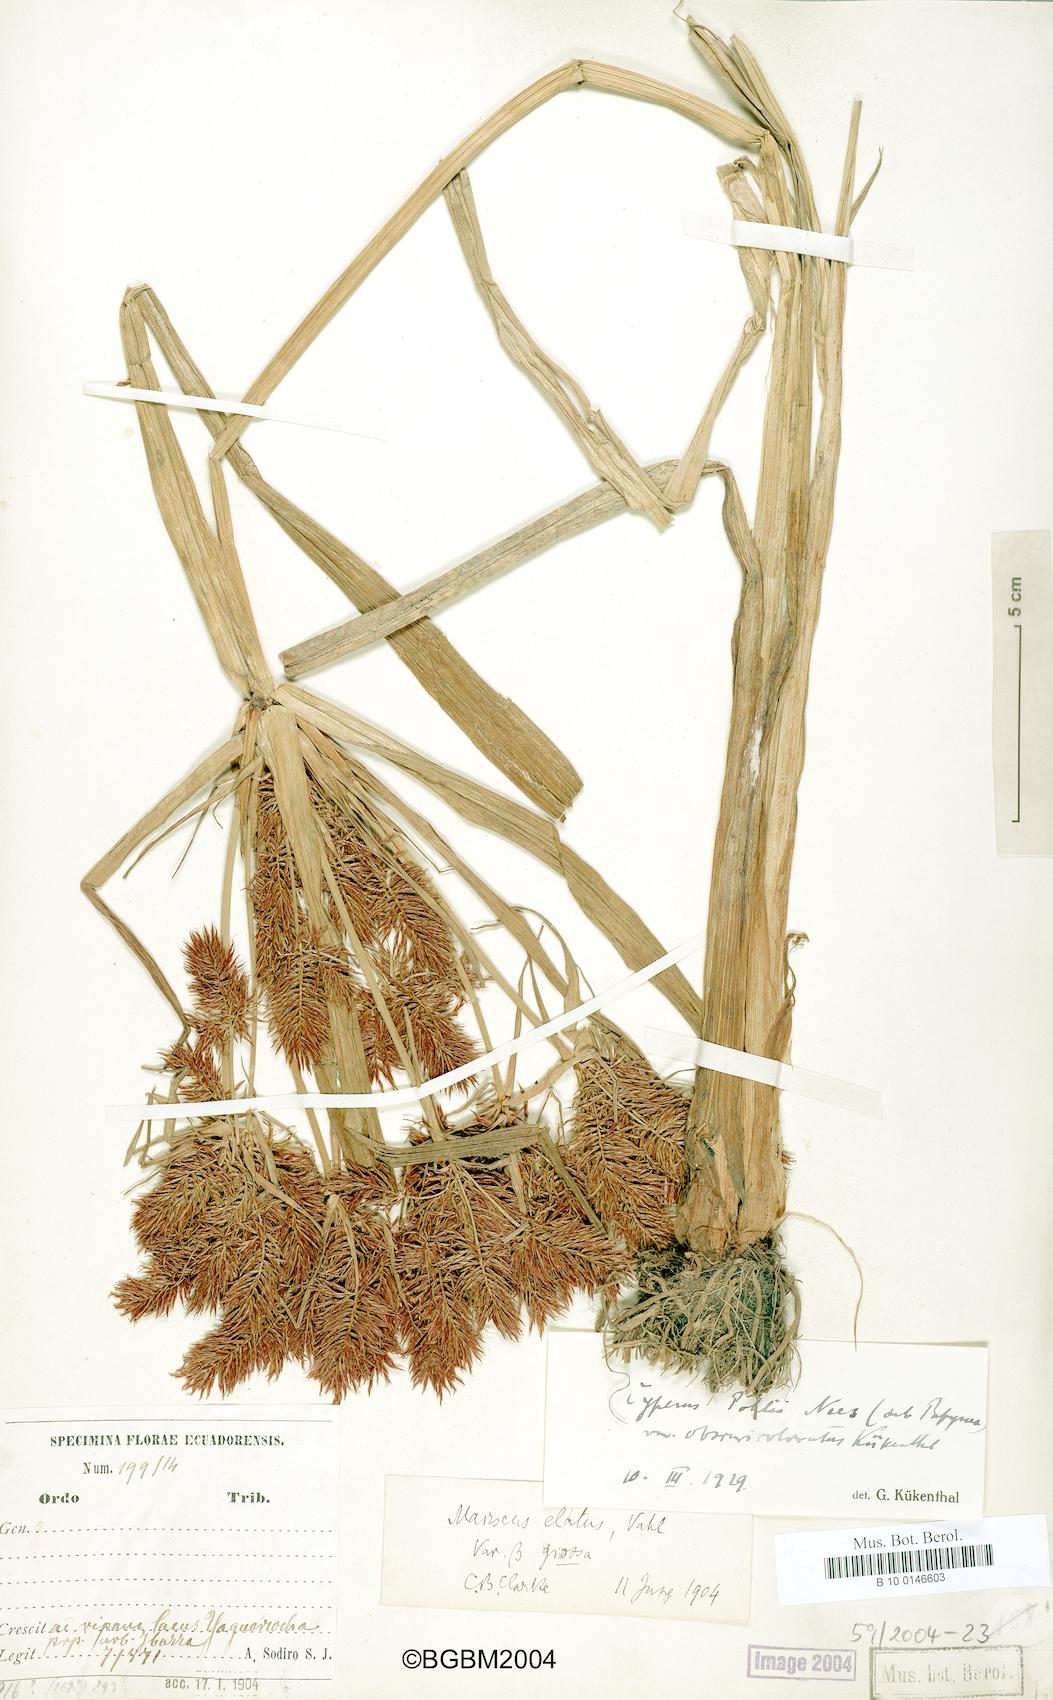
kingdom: Plantae
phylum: Tracheophyta
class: Liliopsida
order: Poales
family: Cyperaceae
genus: Cyperus
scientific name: Cyperus pohlii
